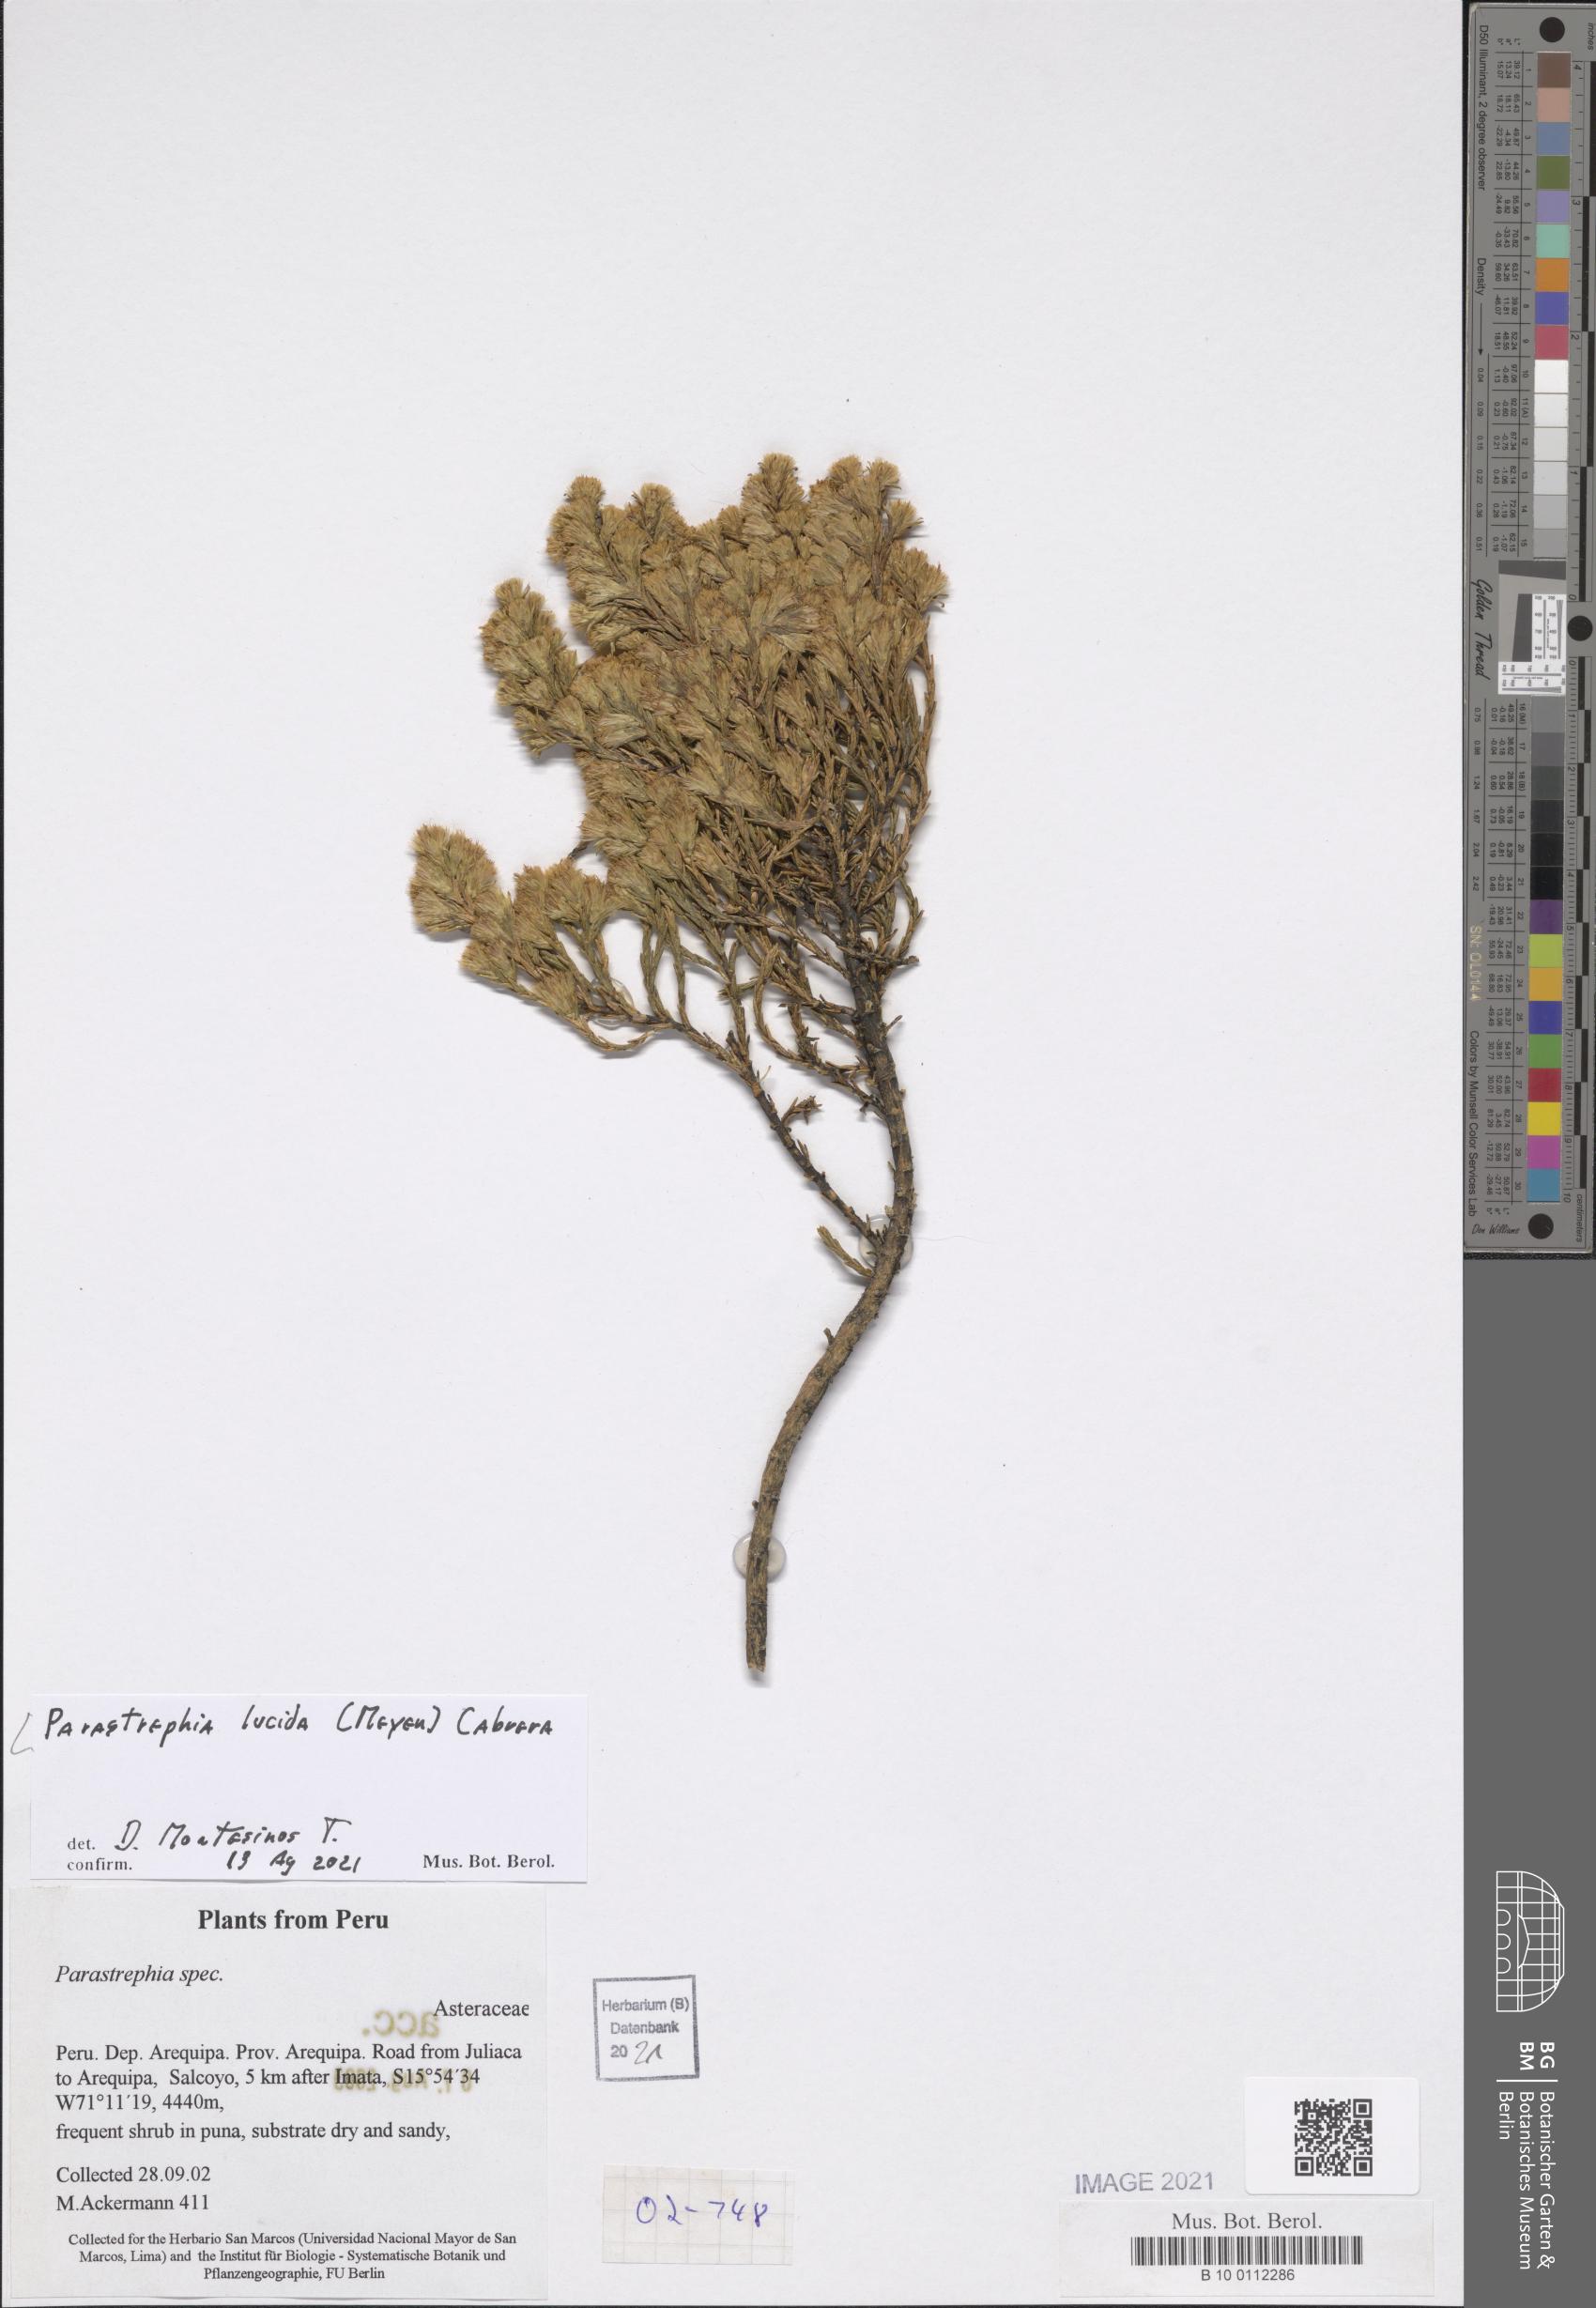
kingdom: Plantae
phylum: Tracheophyta
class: Magnoliopsida
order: Asterales
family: Asteraceae
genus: Parastrephia
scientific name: Parastrephia lucida
